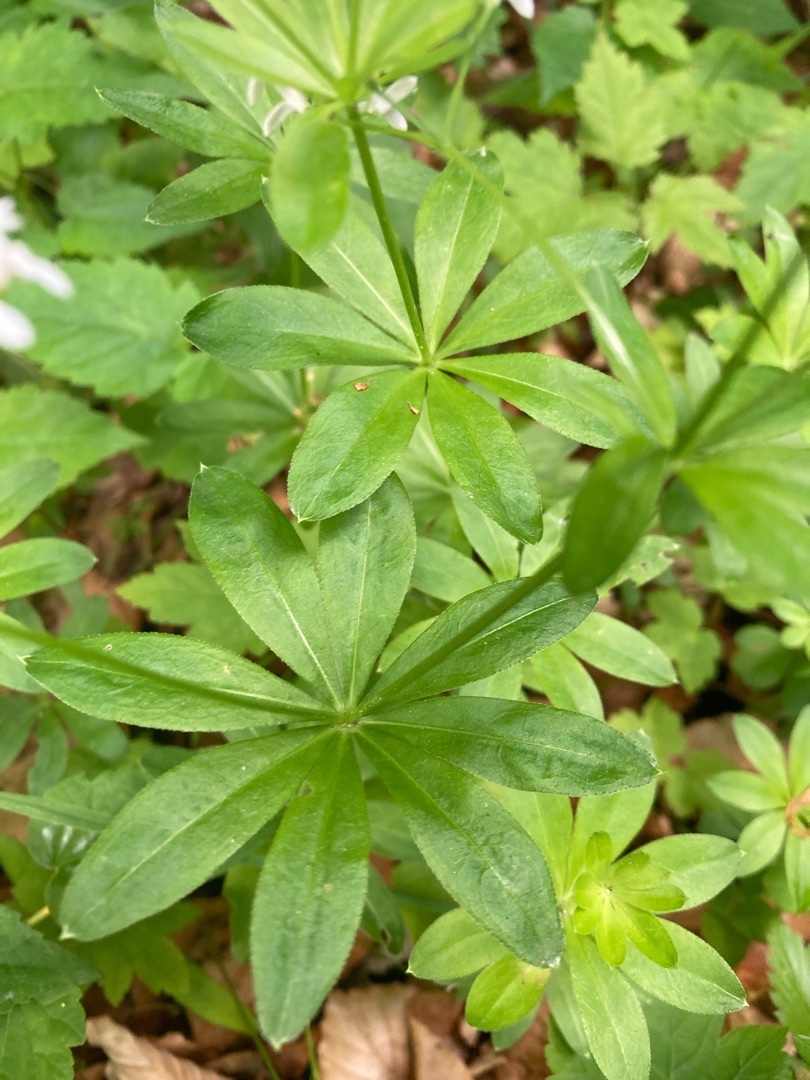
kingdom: Plantae
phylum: Tracheophyta
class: Magnoliopsida
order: Gentianales
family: Rubiaceae
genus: Galium
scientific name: Galium odoratum
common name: Skovmærke
